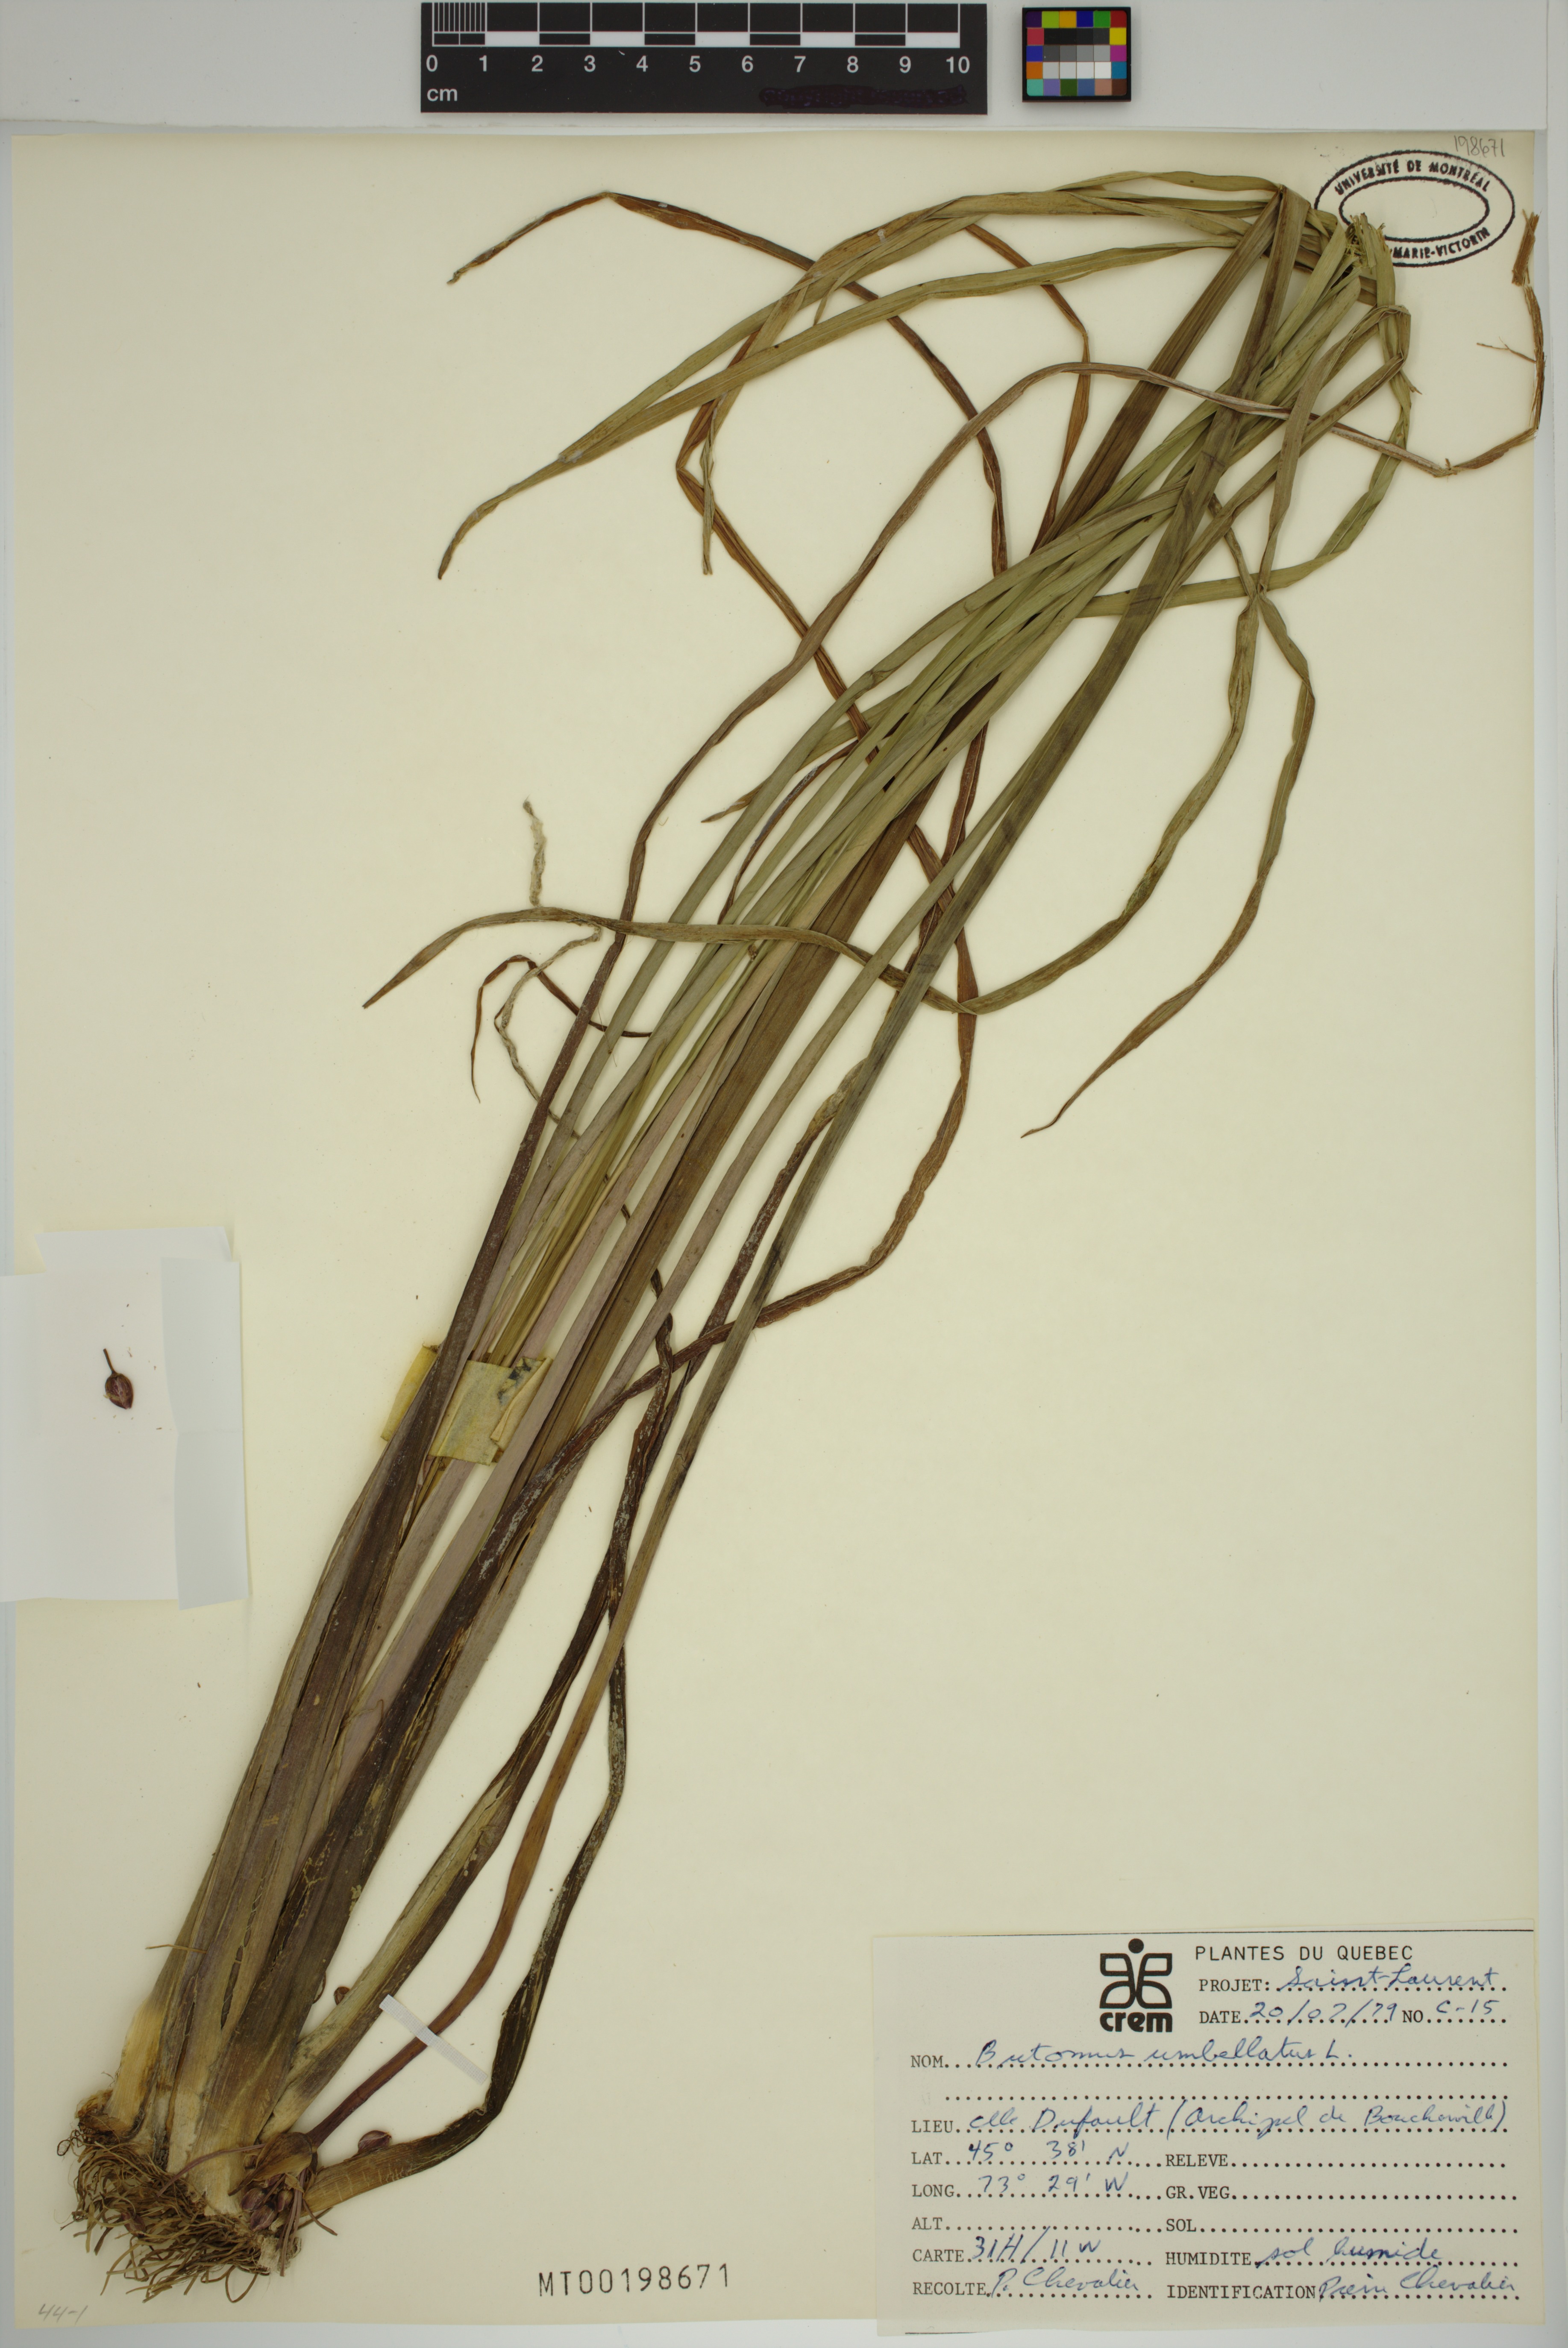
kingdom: Plantae
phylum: Tracheophyta
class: Liliopsida
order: Alismatales
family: Butomaceae
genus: Butomus
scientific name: Butomus umbellatus
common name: Flowering-rush
